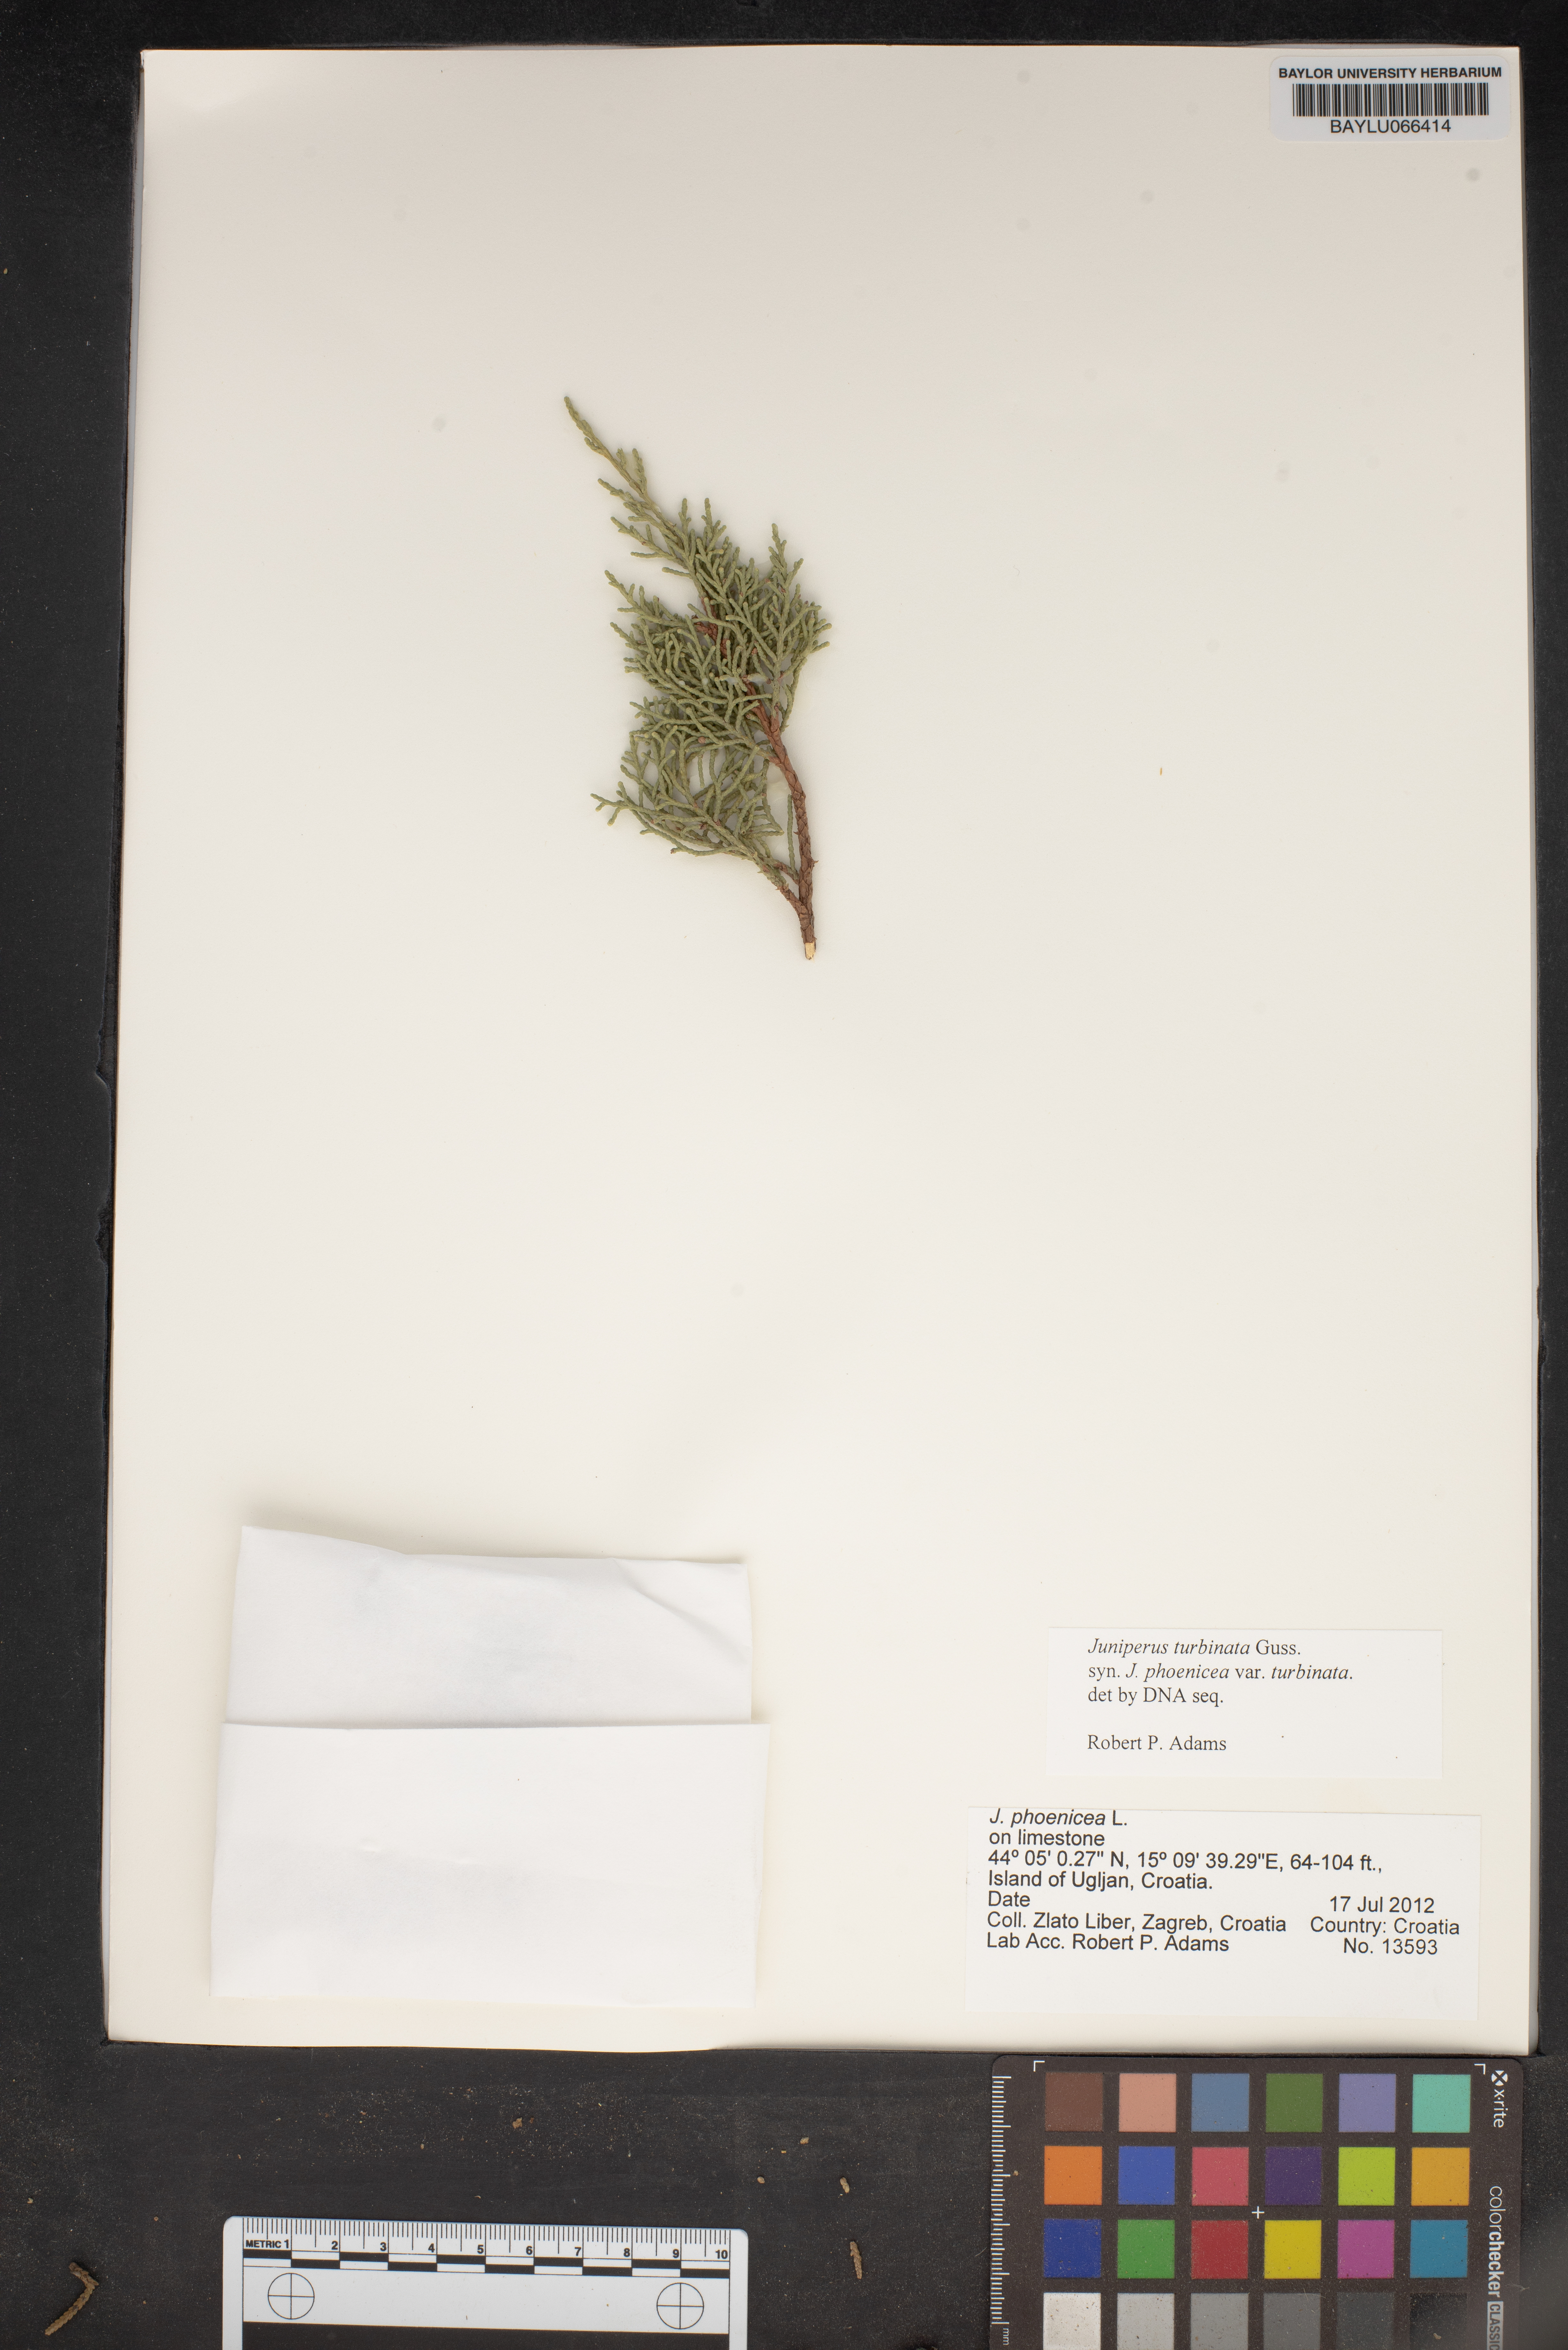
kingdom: Plantae
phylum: Tracheophyta
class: Pinopsida
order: Pinales
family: Cupressaceae
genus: Juniperus
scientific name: Juniperus phoenicea
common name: Phoenician juniper
